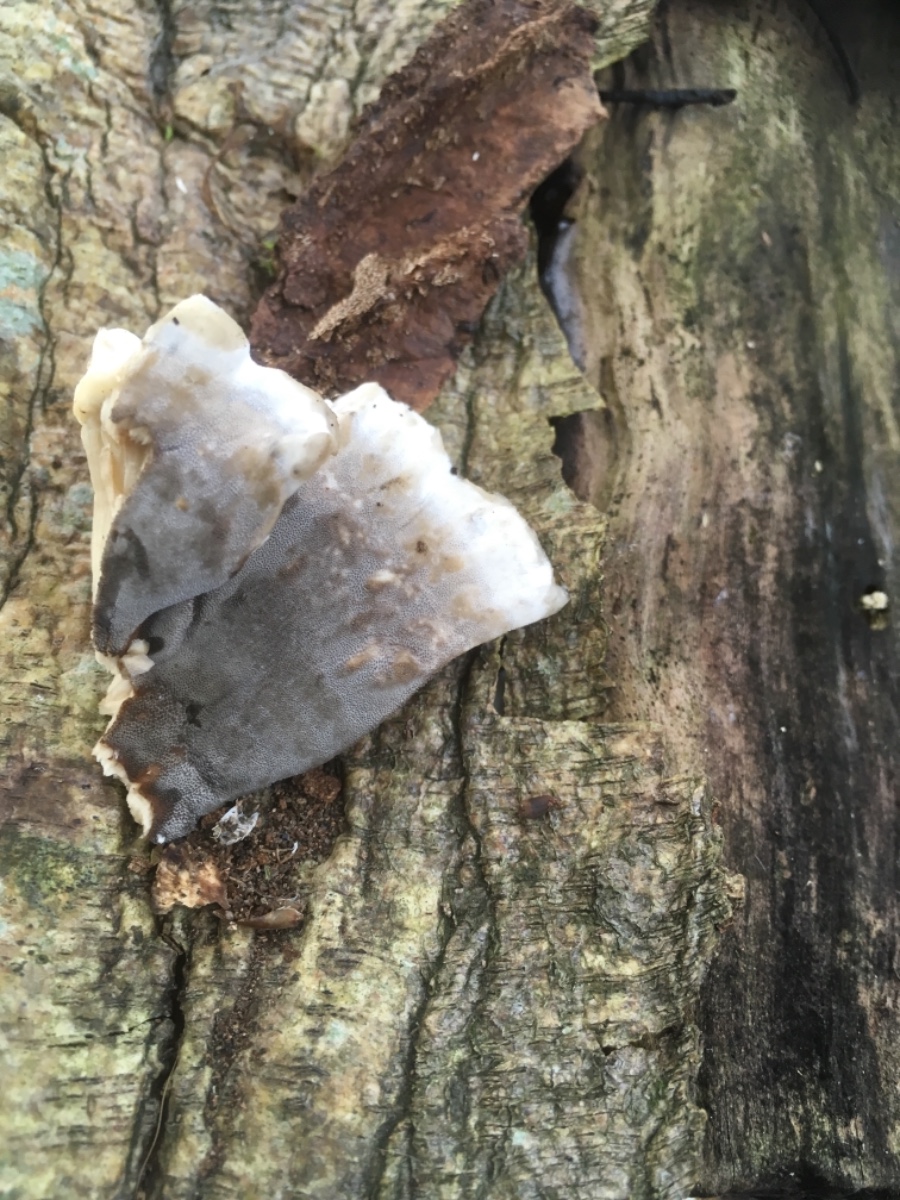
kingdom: Fungi
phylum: Basidiomycota
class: Agaricomycetes
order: Polyporales
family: Phanerochaetaceae
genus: Bjerkandera
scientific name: Bjerkandera adusta
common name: sveden sodporesvamp
